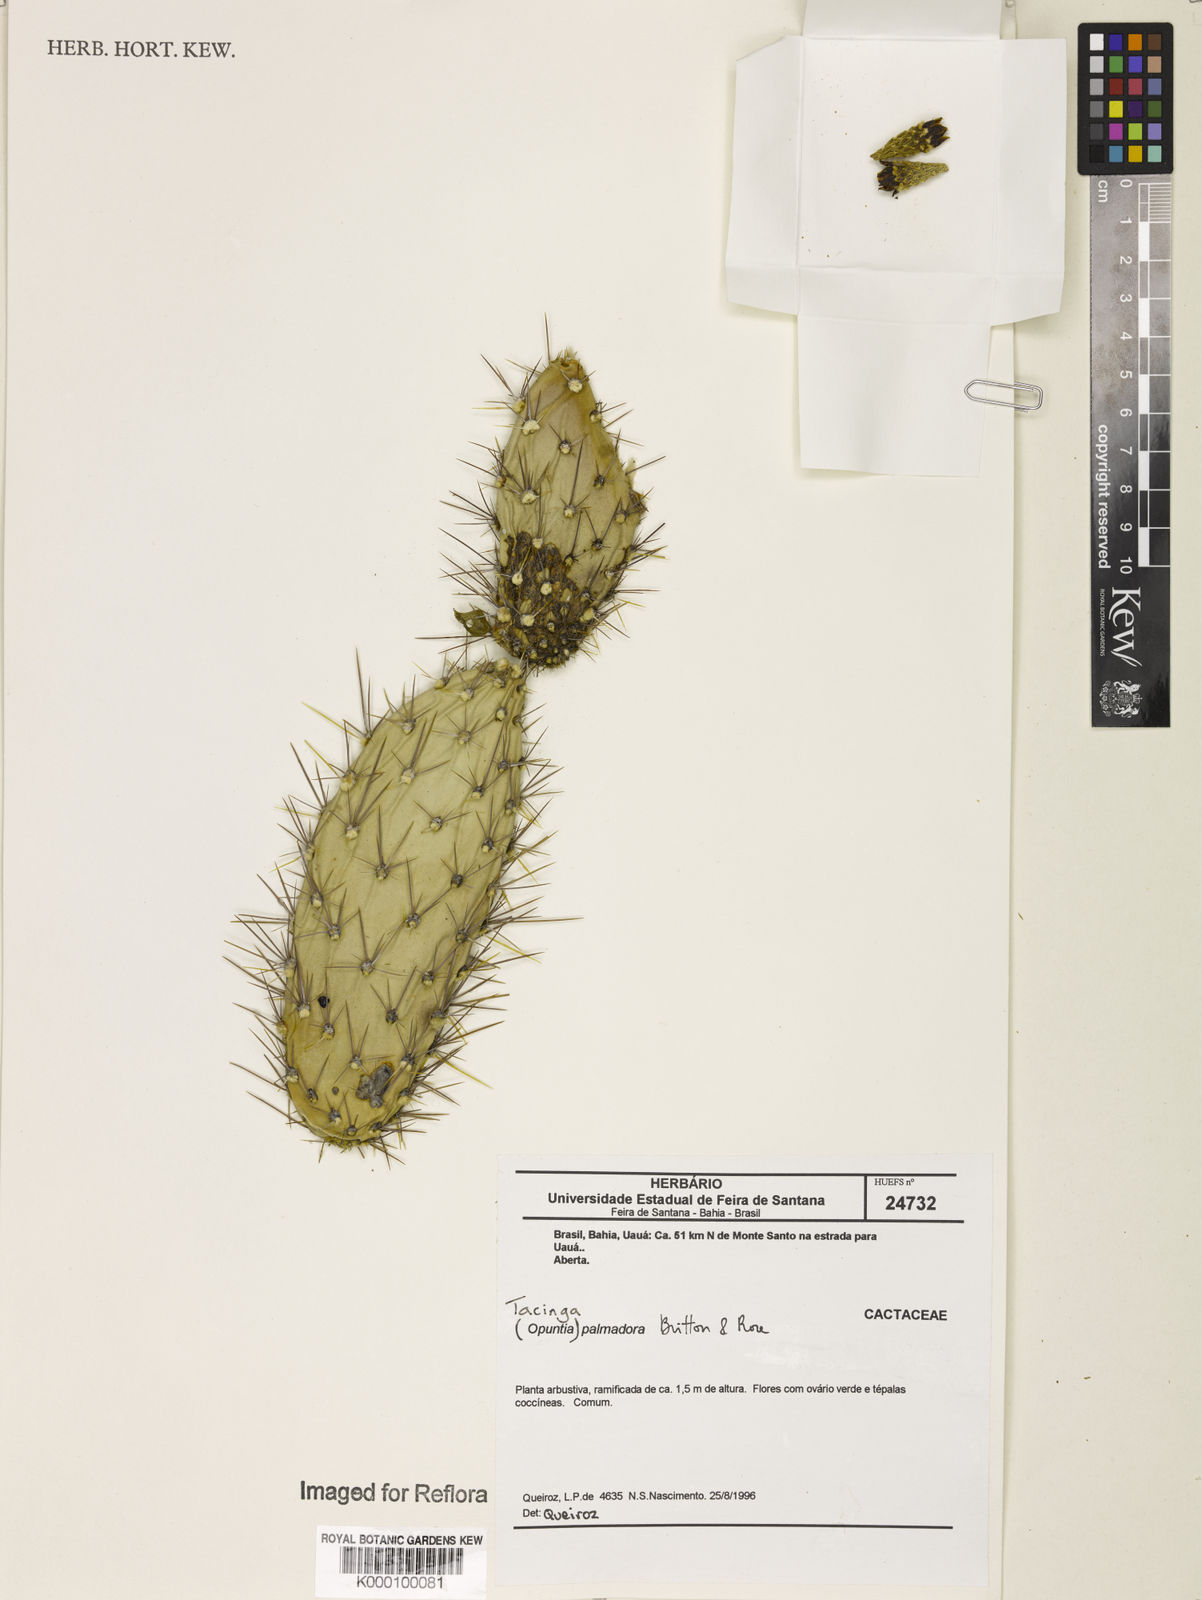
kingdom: Plantae
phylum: Tracheophyta
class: Magnoliopsida
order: Caryophyllales
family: Cactaceae
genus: Tacinga
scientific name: Tacinga palmadora
